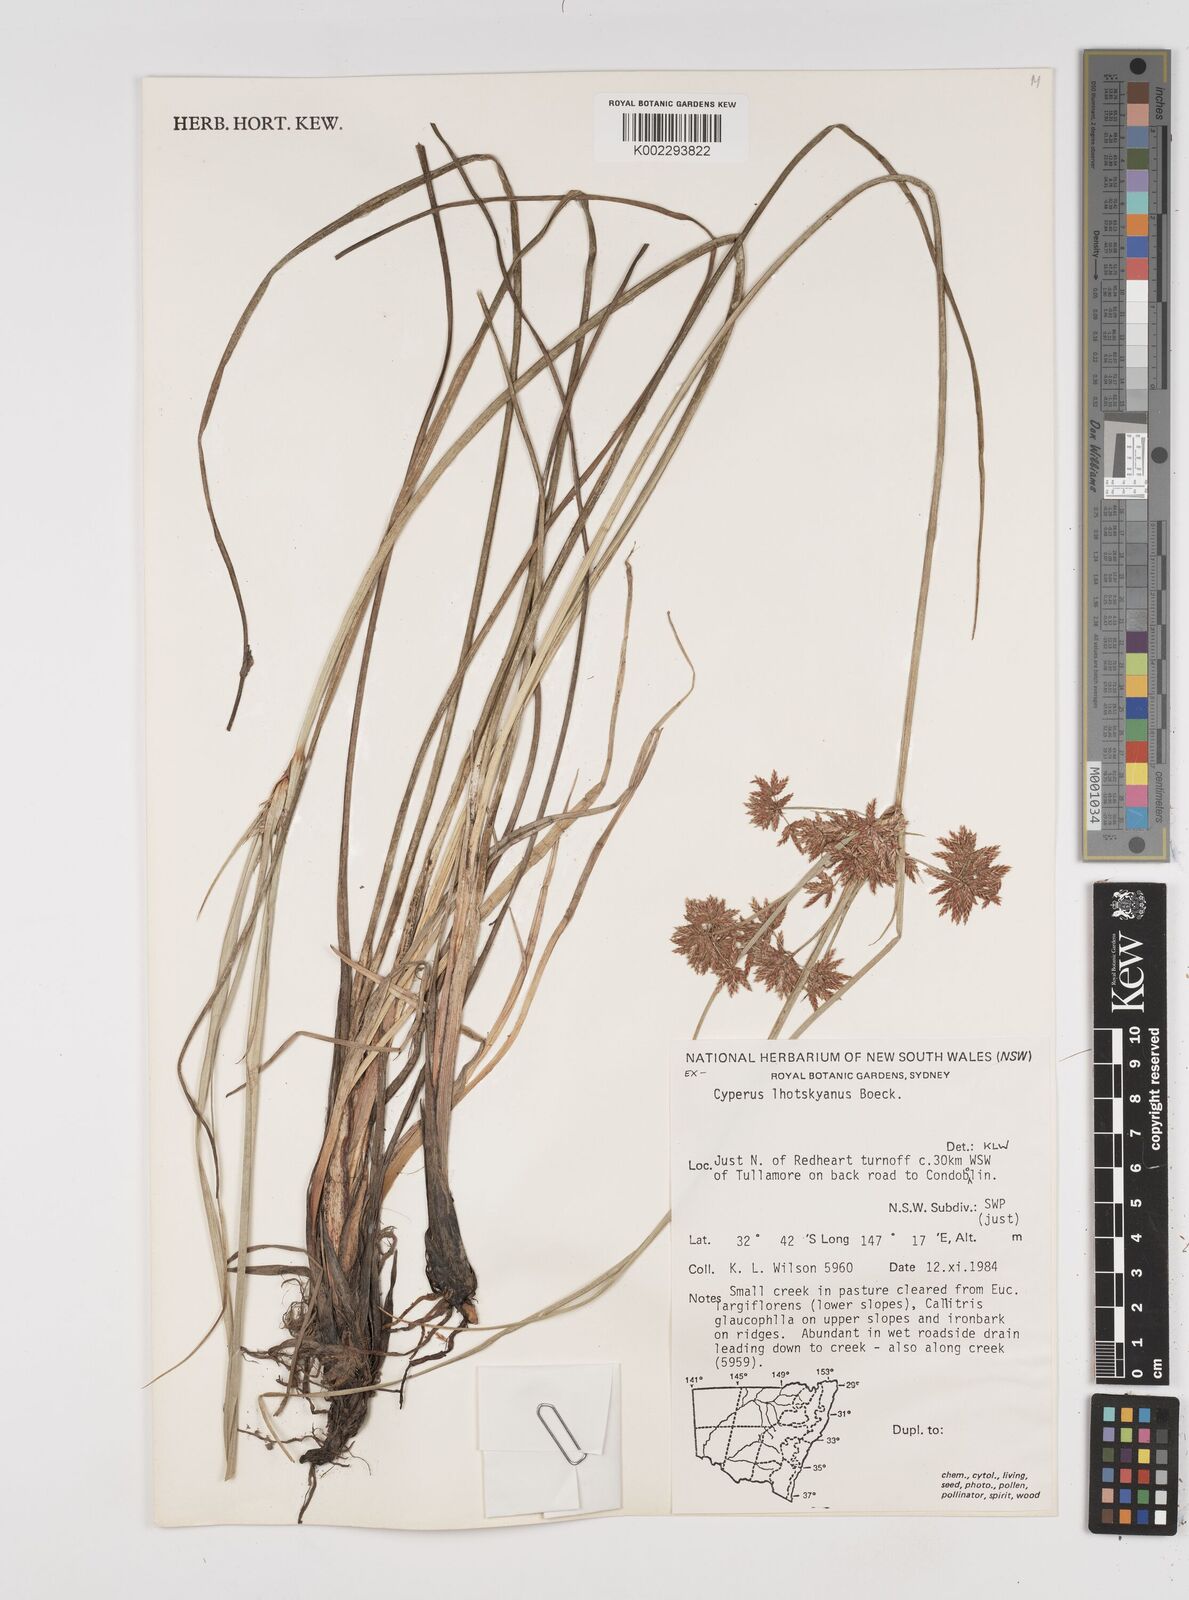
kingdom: Plantae
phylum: Tracheophyta
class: Liliopsida
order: Poales
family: Cyperaceae
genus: Cyperus
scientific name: Cyperus lhotskyanus
